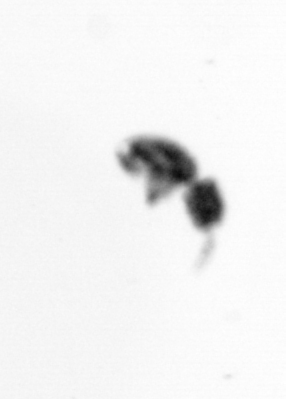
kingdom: Animalia
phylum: Arthropoda
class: Copepoda
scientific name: Copepoda
